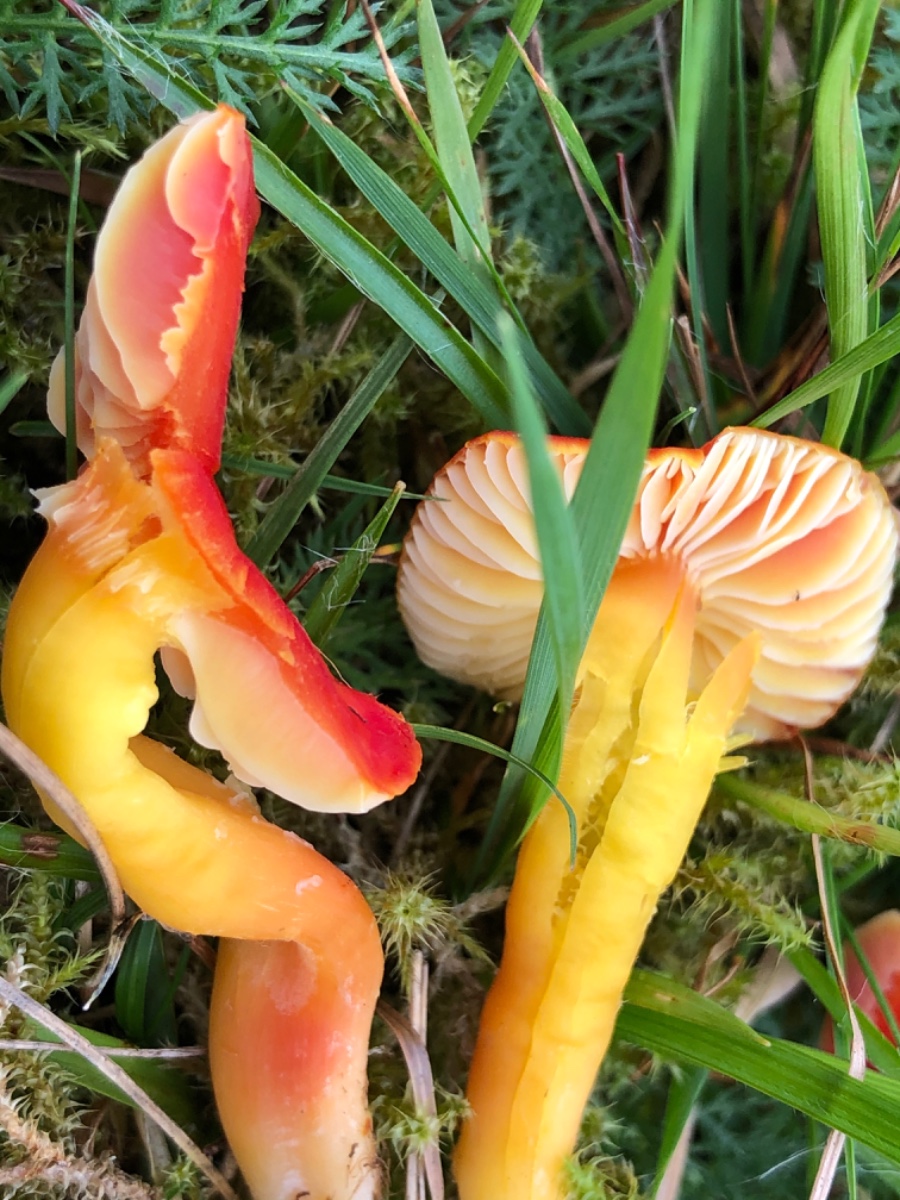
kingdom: Fungi
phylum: Basidiomycota
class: Agaricomycetes
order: Agaricales
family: Hygrophoraceae
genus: Hygrocybe
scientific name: Hygrocybe coccinea
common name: cinnober-vokshat
